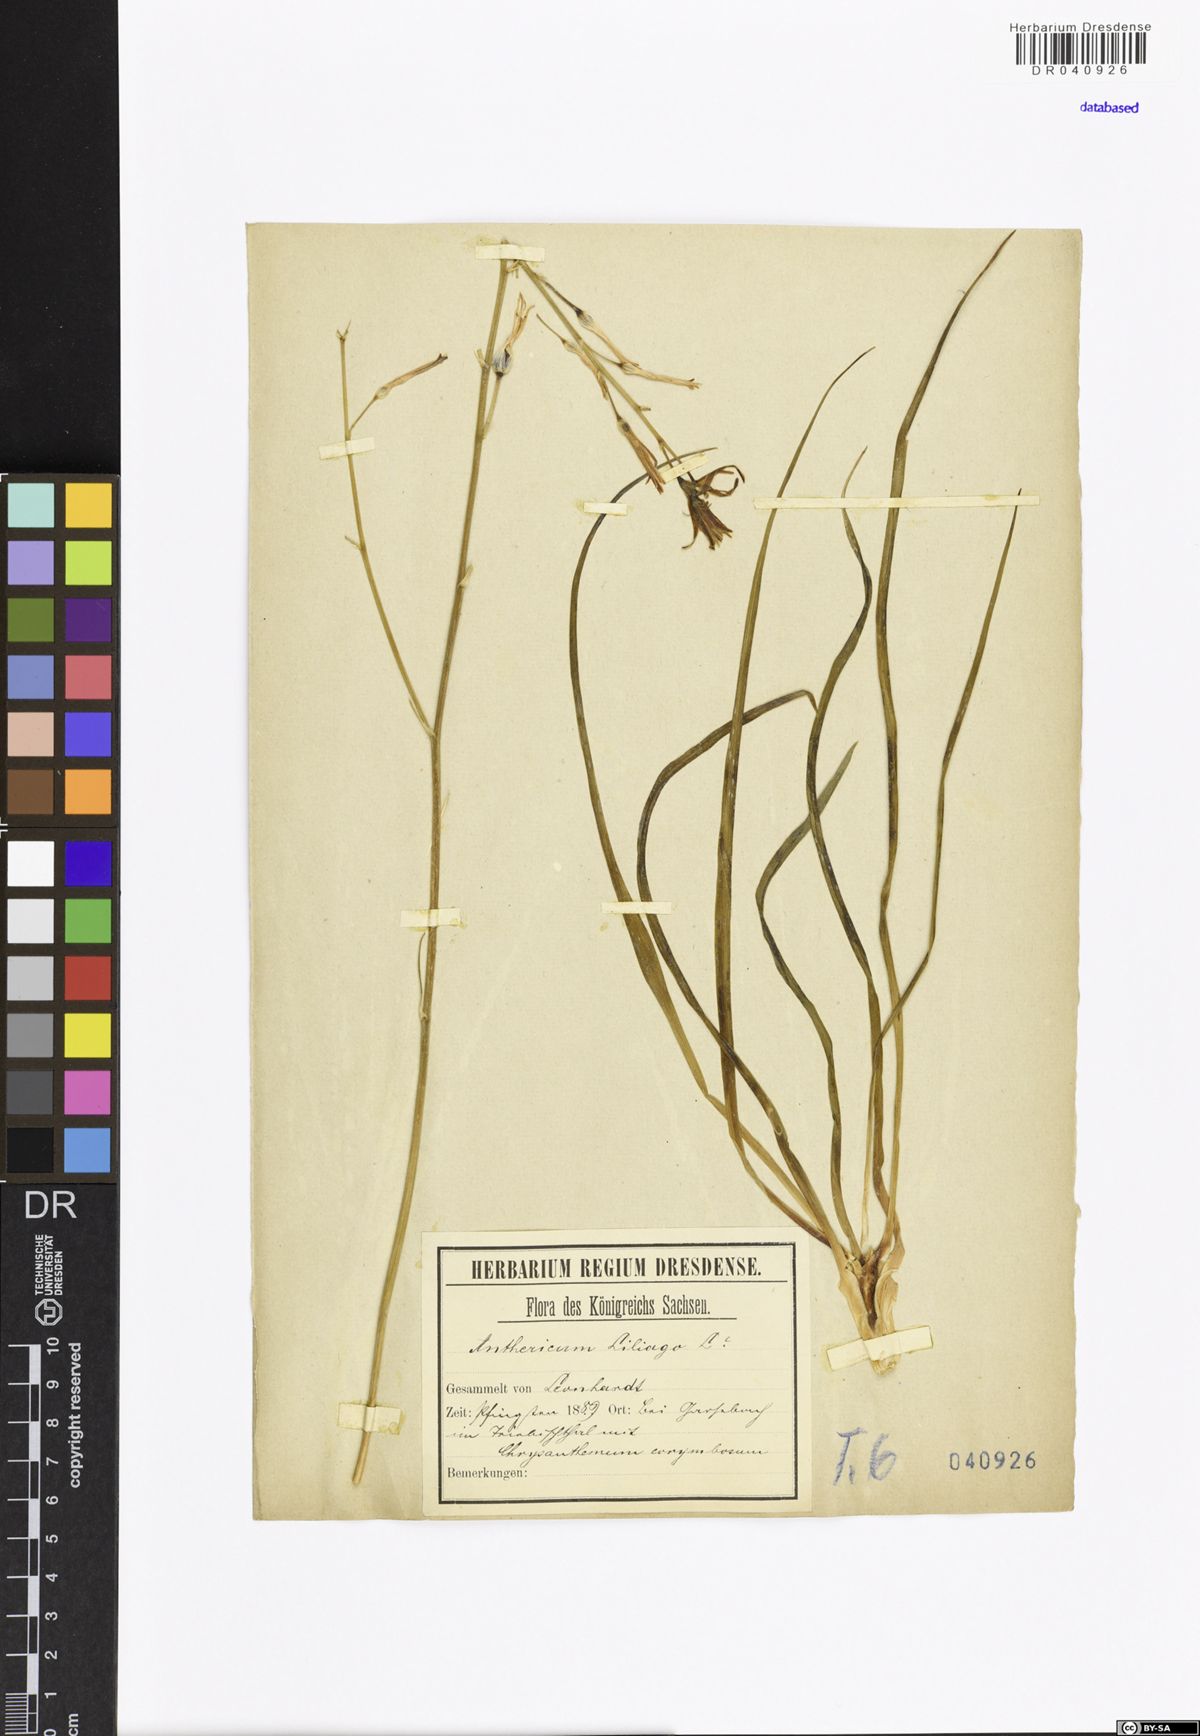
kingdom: Plantae
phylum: Tracheophyta
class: Liliopsida
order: Asparagales
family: Asparagaceae
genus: Anthericum
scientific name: Anthericum liliago
